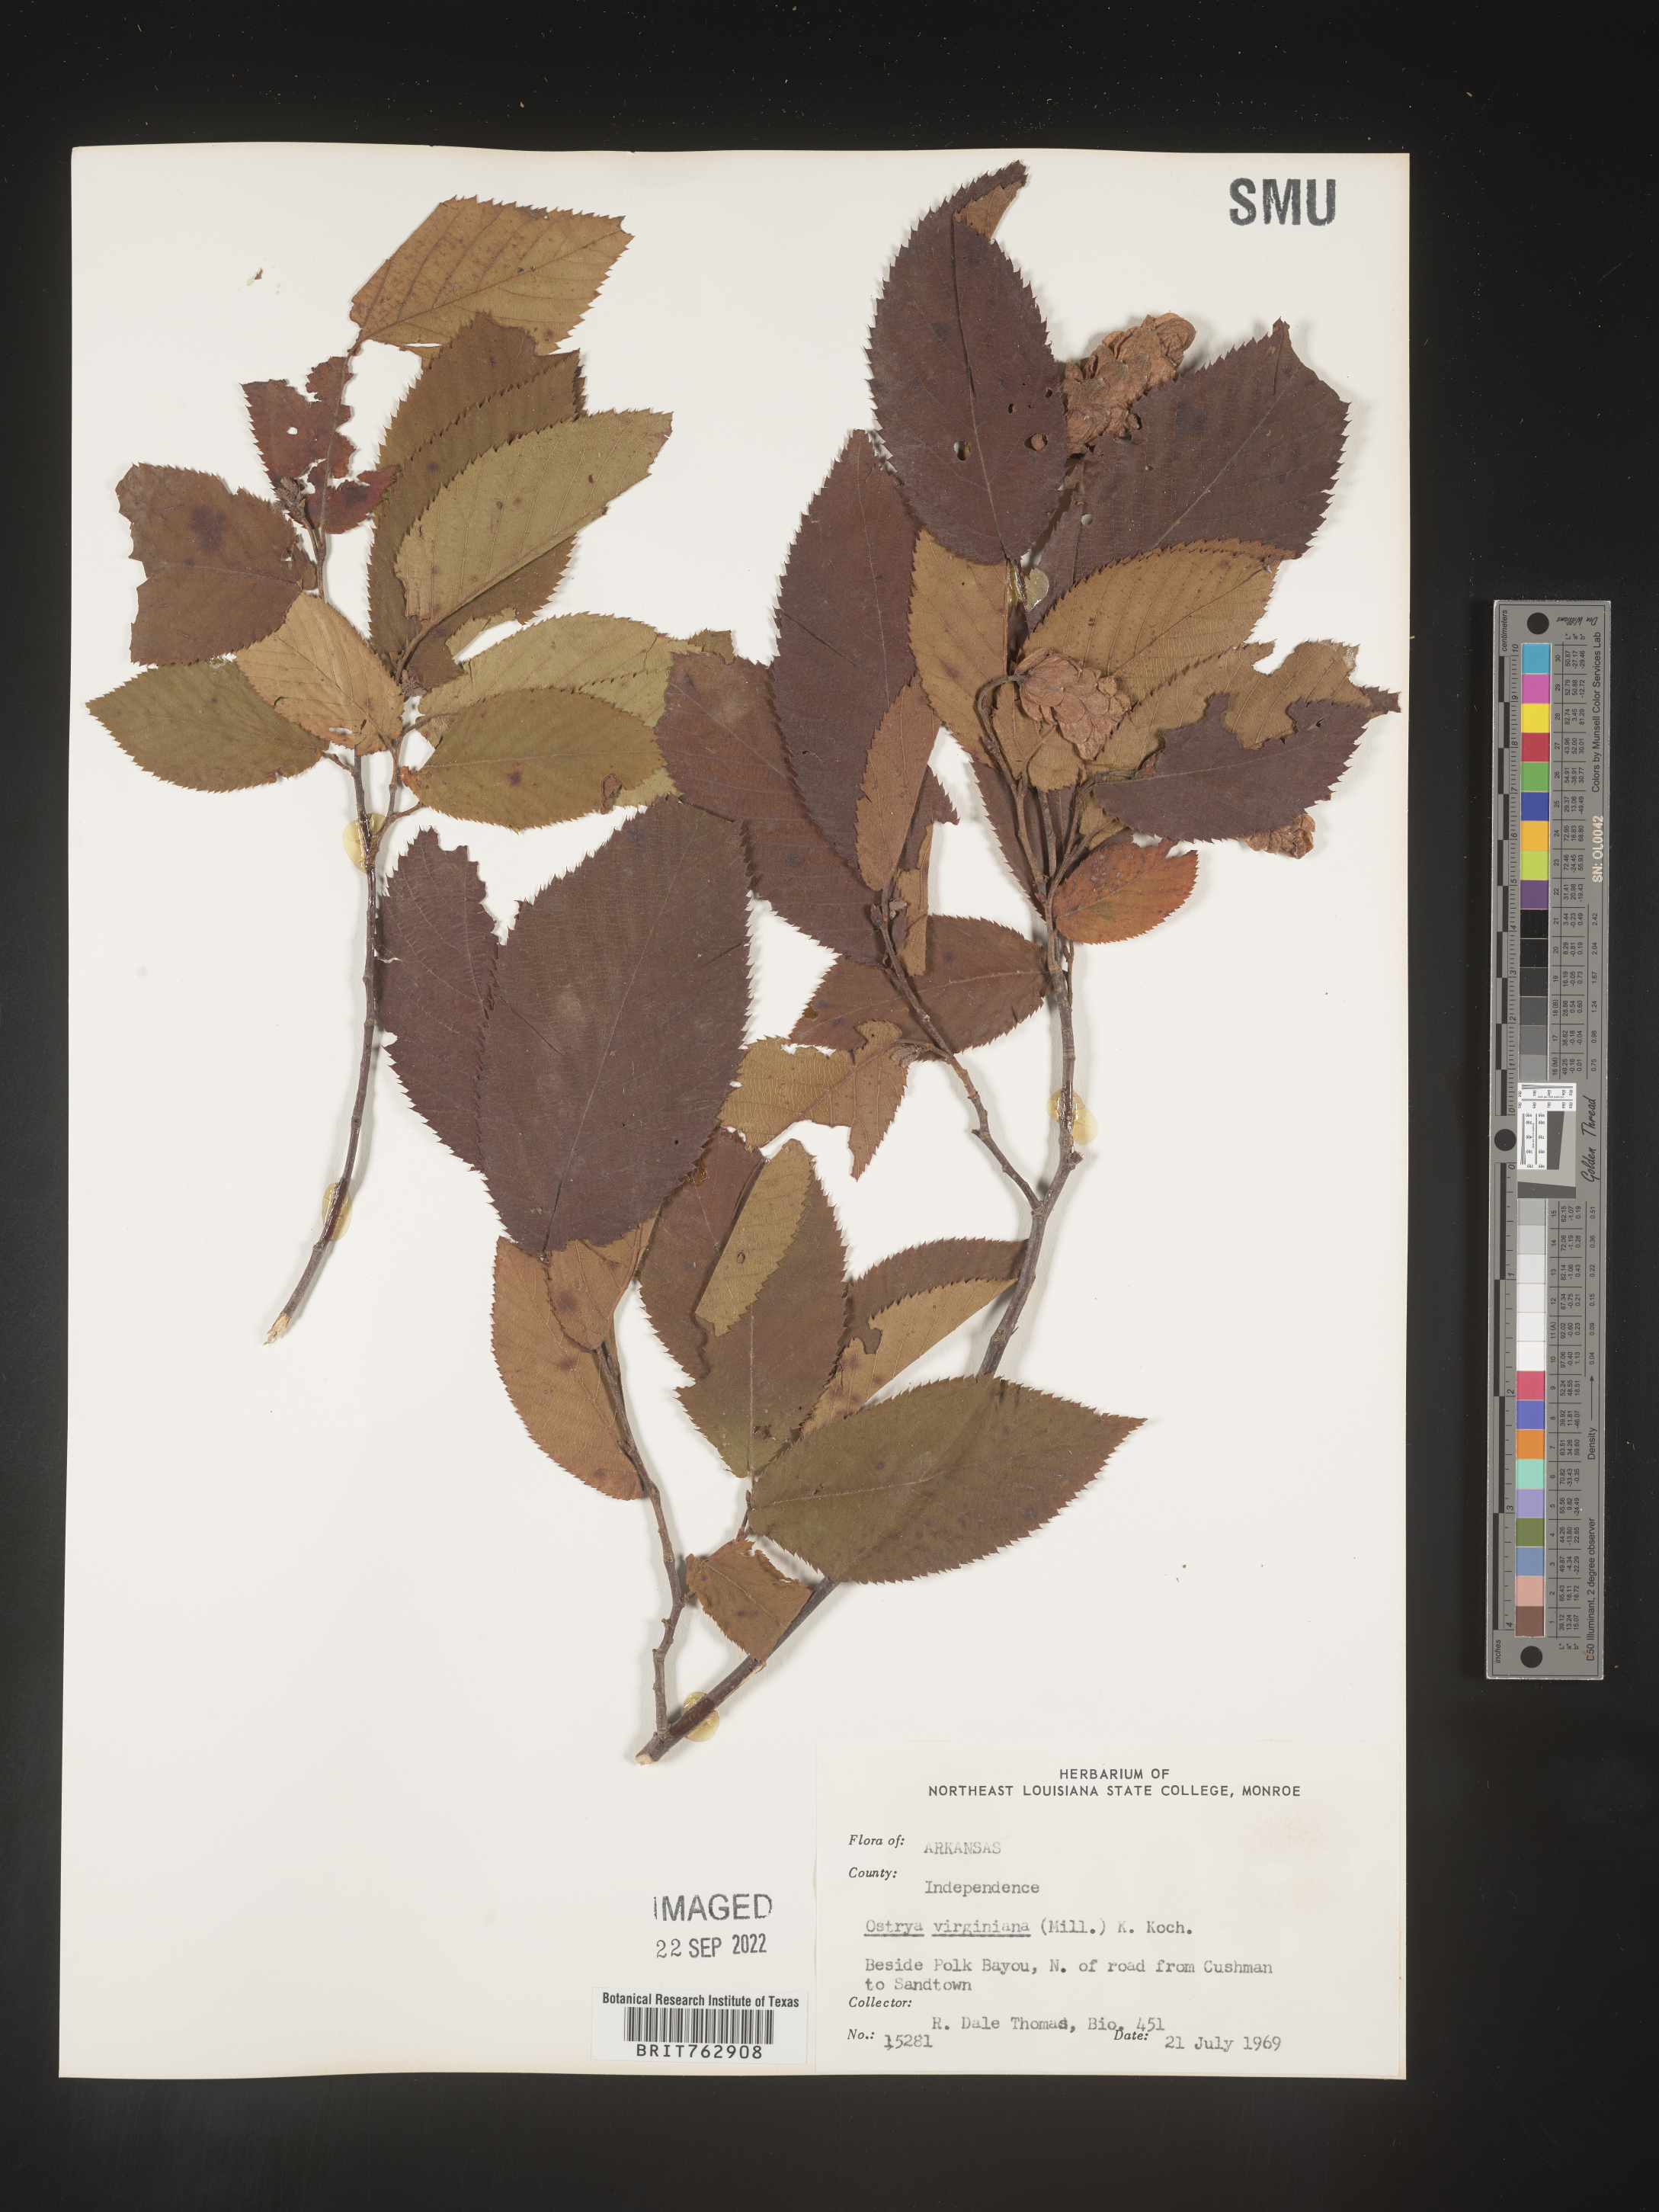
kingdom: Plantae
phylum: Tracheophyta
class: Magnoliopsida
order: Fagales
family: Betulaceae
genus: Ostrya
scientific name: Ostrya virginiana
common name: Ironwood
